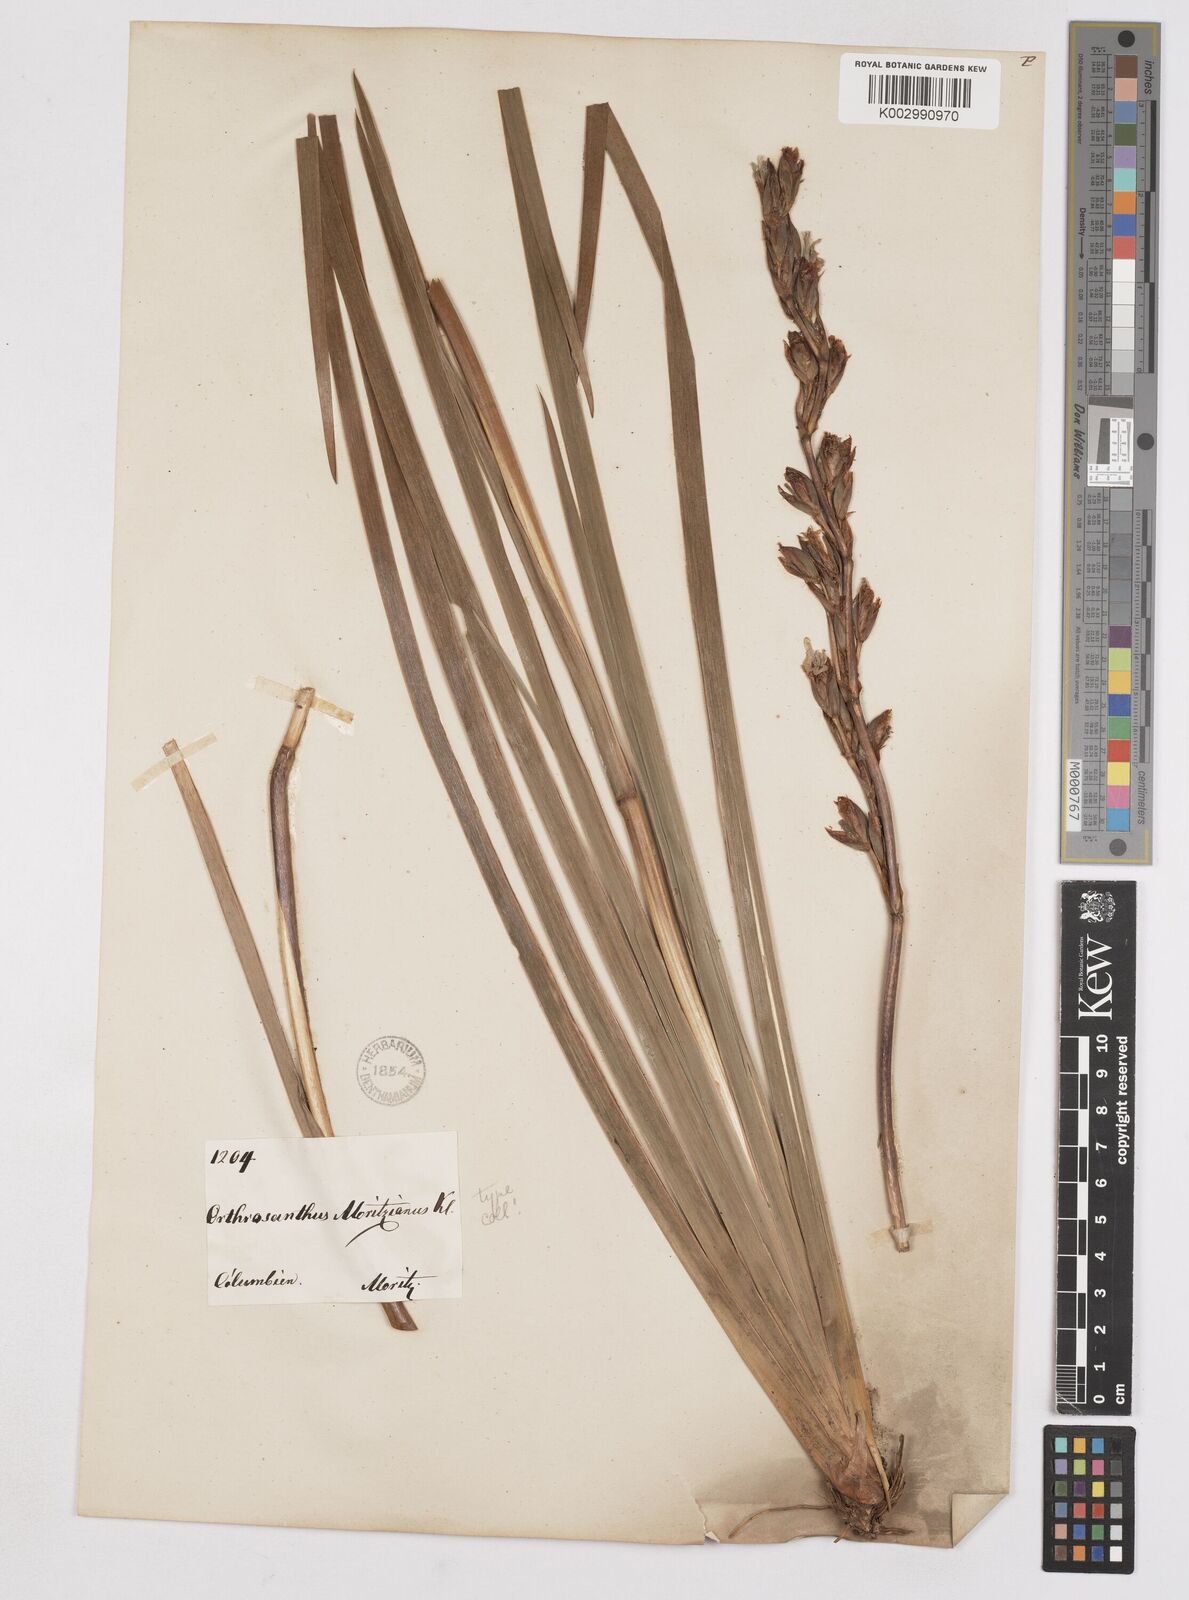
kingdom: Plantae
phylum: Tracheophyta
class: Liliopsida
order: Asparagales
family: Iridaceae
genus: Orthrosanthus
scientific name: Orthrosanthus chimboracensis
